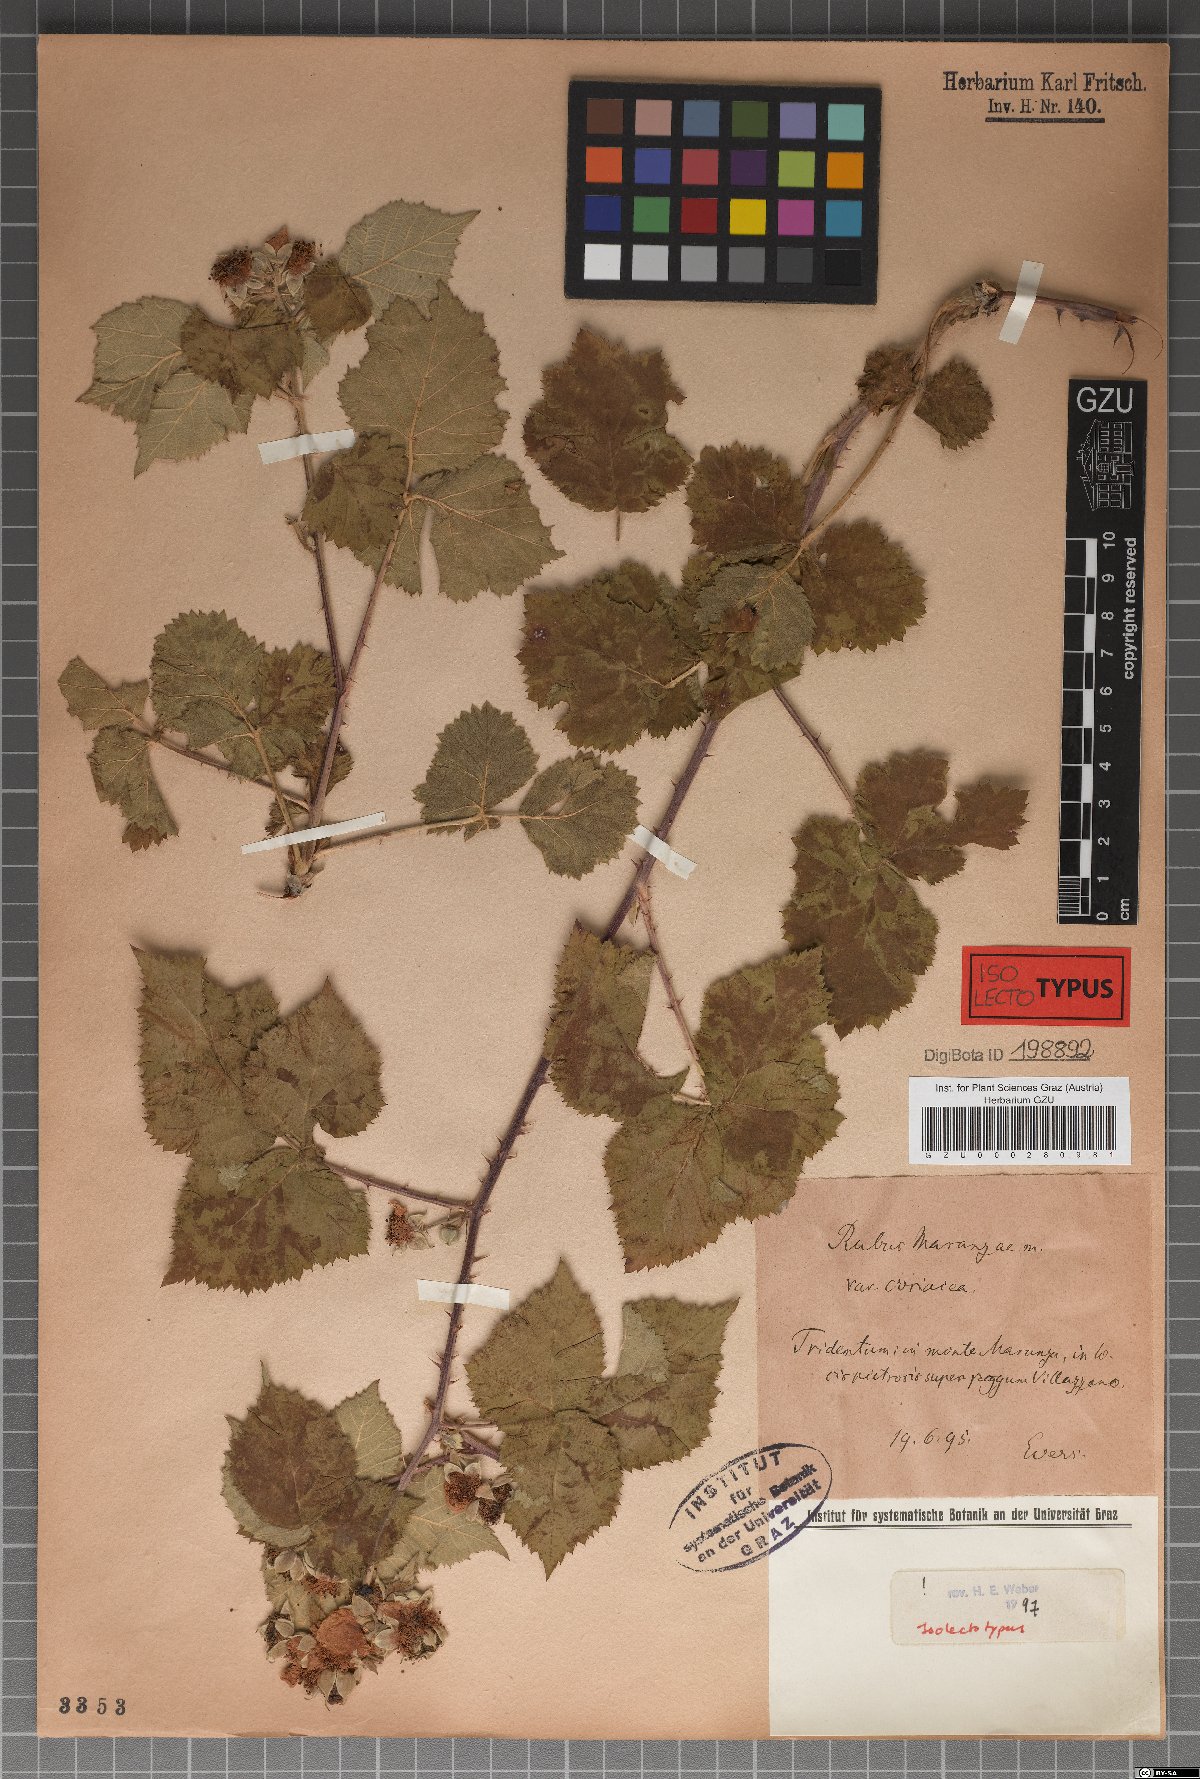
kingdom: Plantae
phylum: Tracheophyta
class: Magnoliopsida
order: Rosales
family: Rosaceae
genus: Rubus
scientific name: Rubus maranzae
